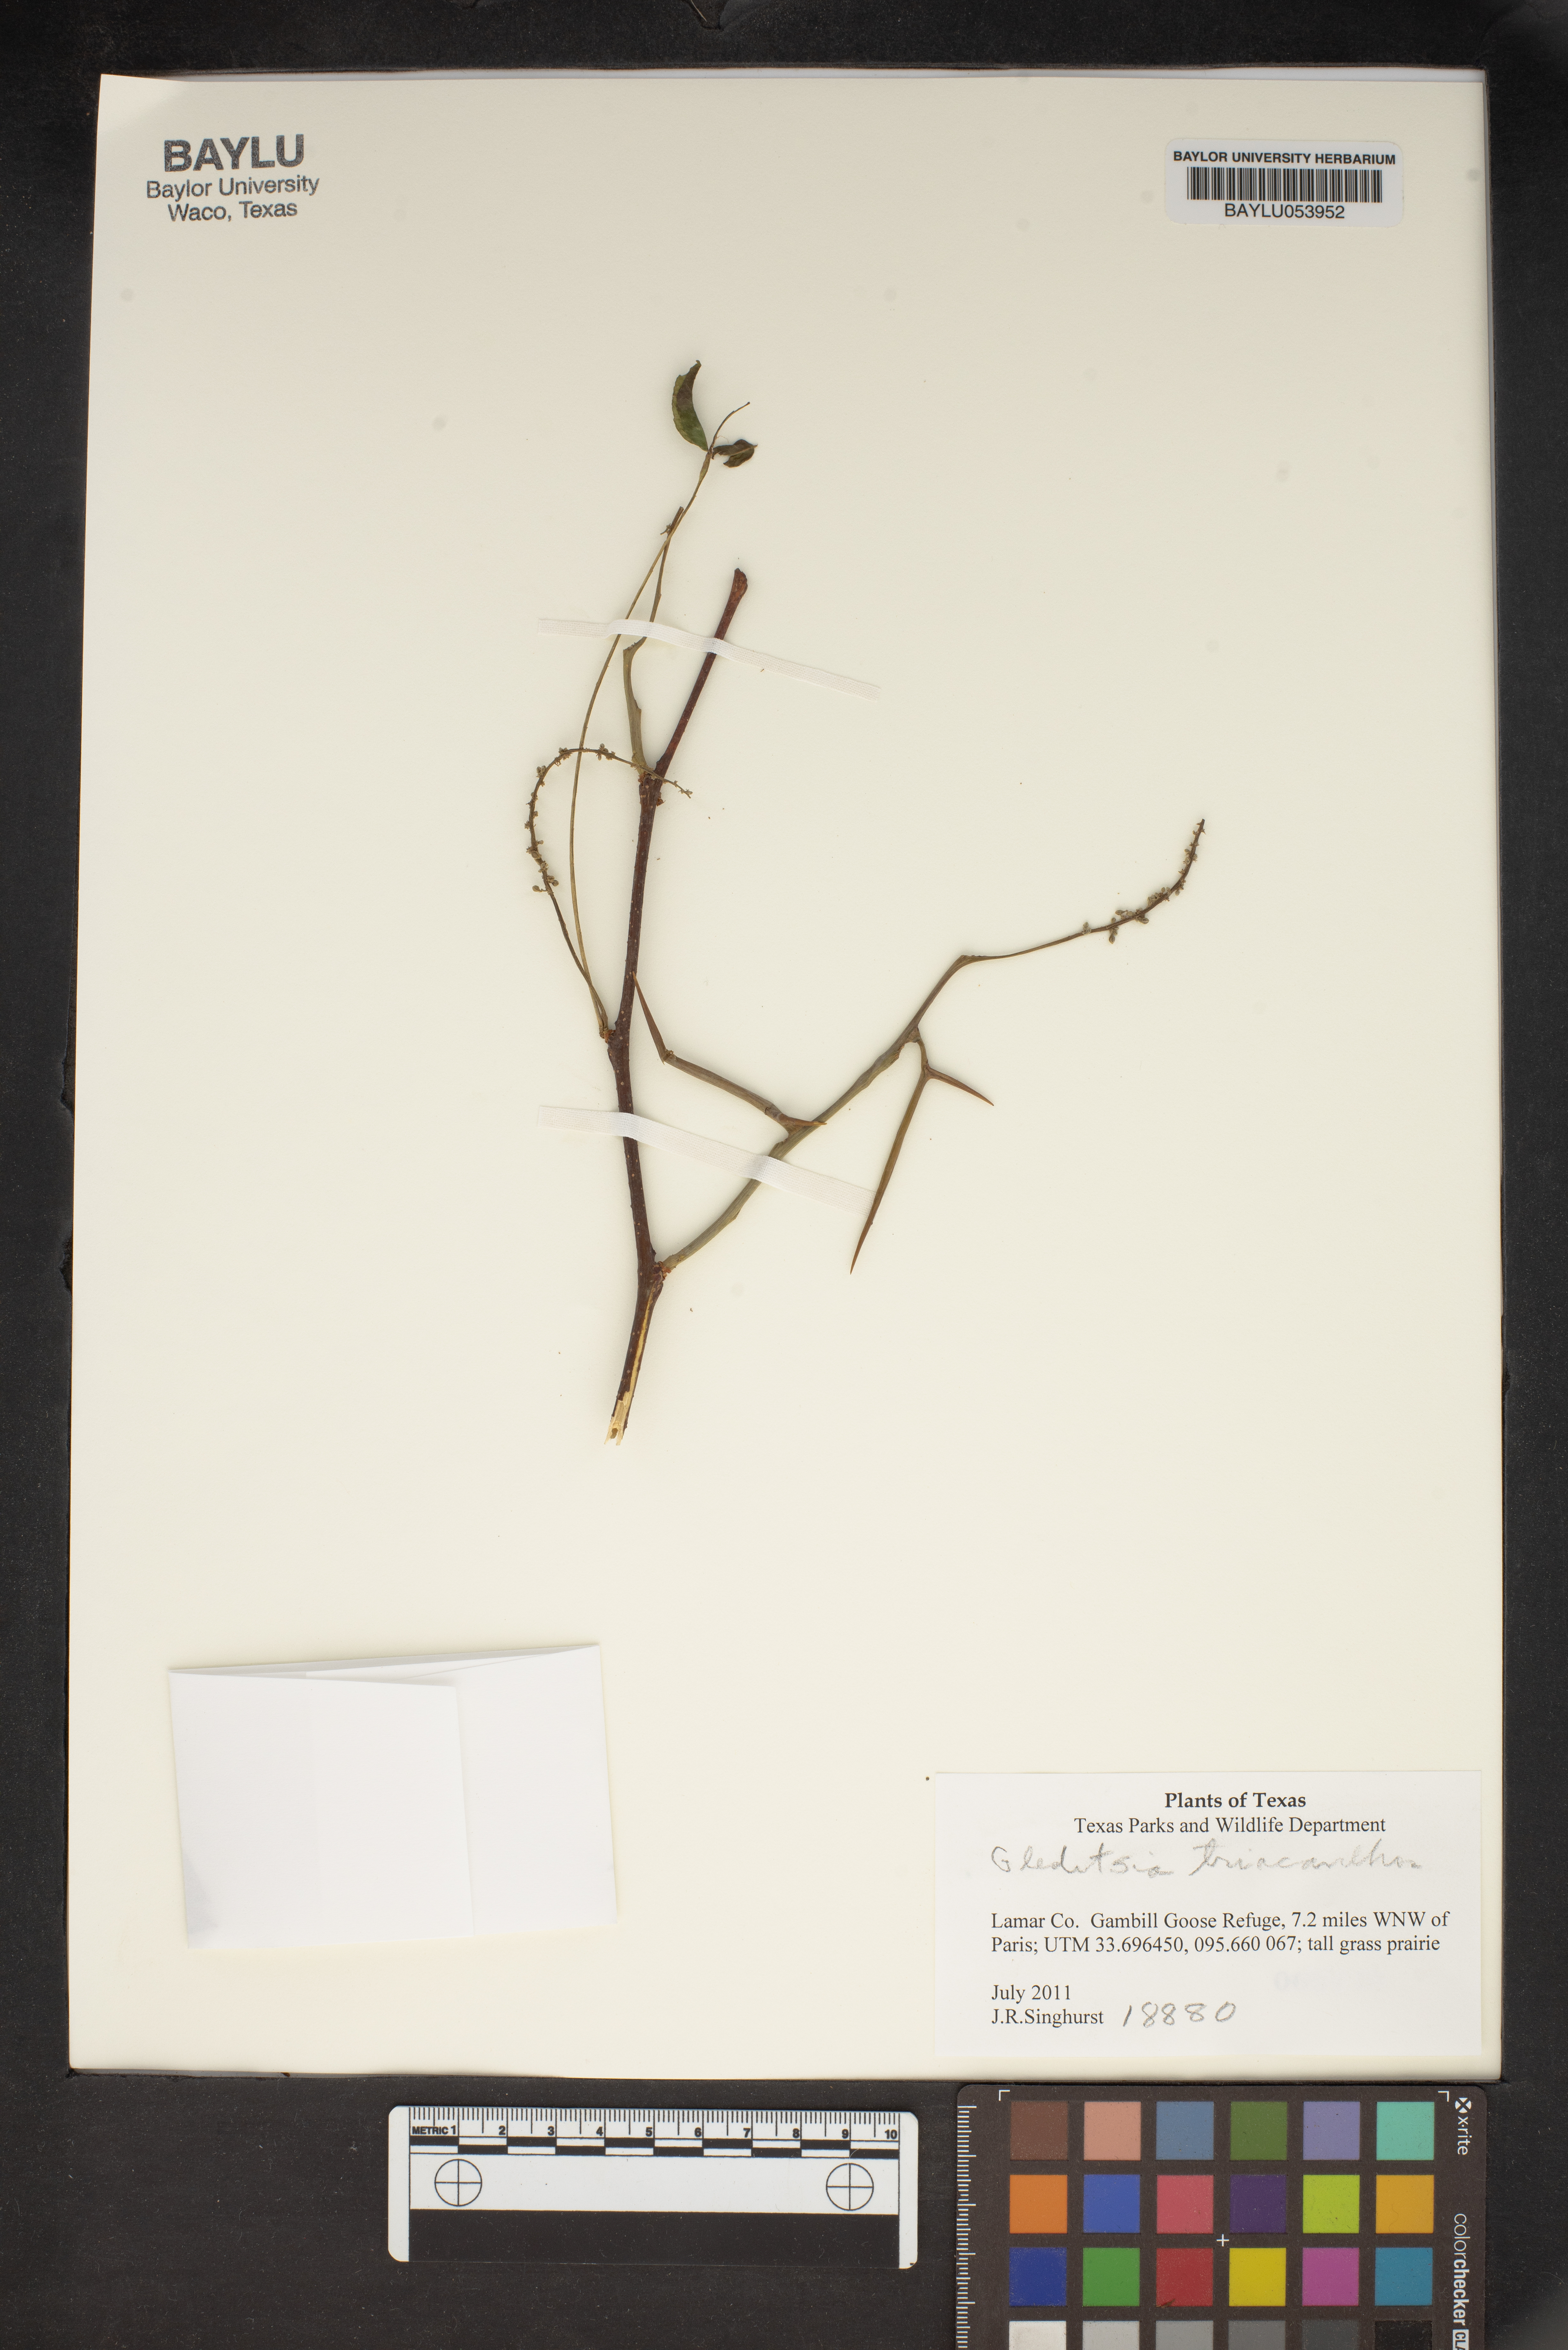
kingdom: Plantae
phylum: Tracheophyta
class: Magnoliopsida
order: Fabales
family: Fabaceae
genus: Gleditsia
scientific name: Gleditsia triacanthos
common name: Common honeylocust
